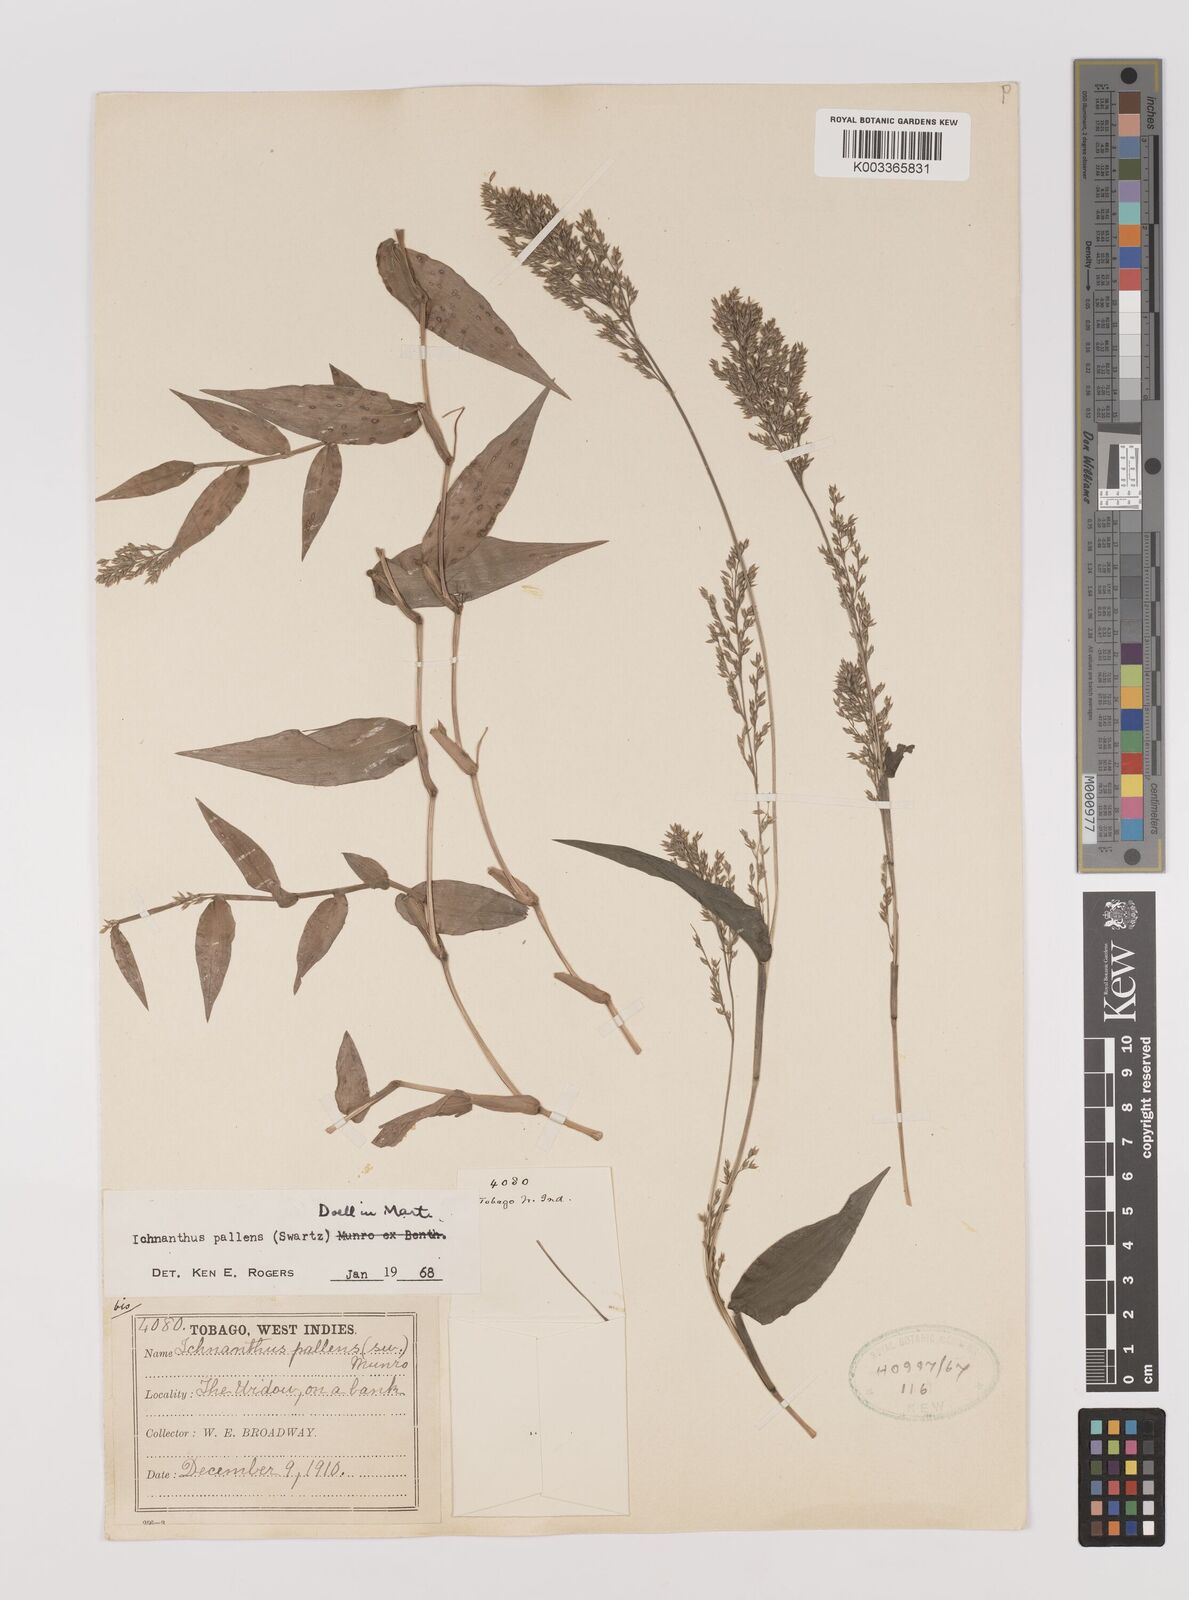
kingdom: Plantae
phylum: Tracheophyta
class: Liliopsida
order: Poales
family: Poaceae
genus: Ichnanthus
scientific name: Ichnanthus pallens
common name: Water grass
